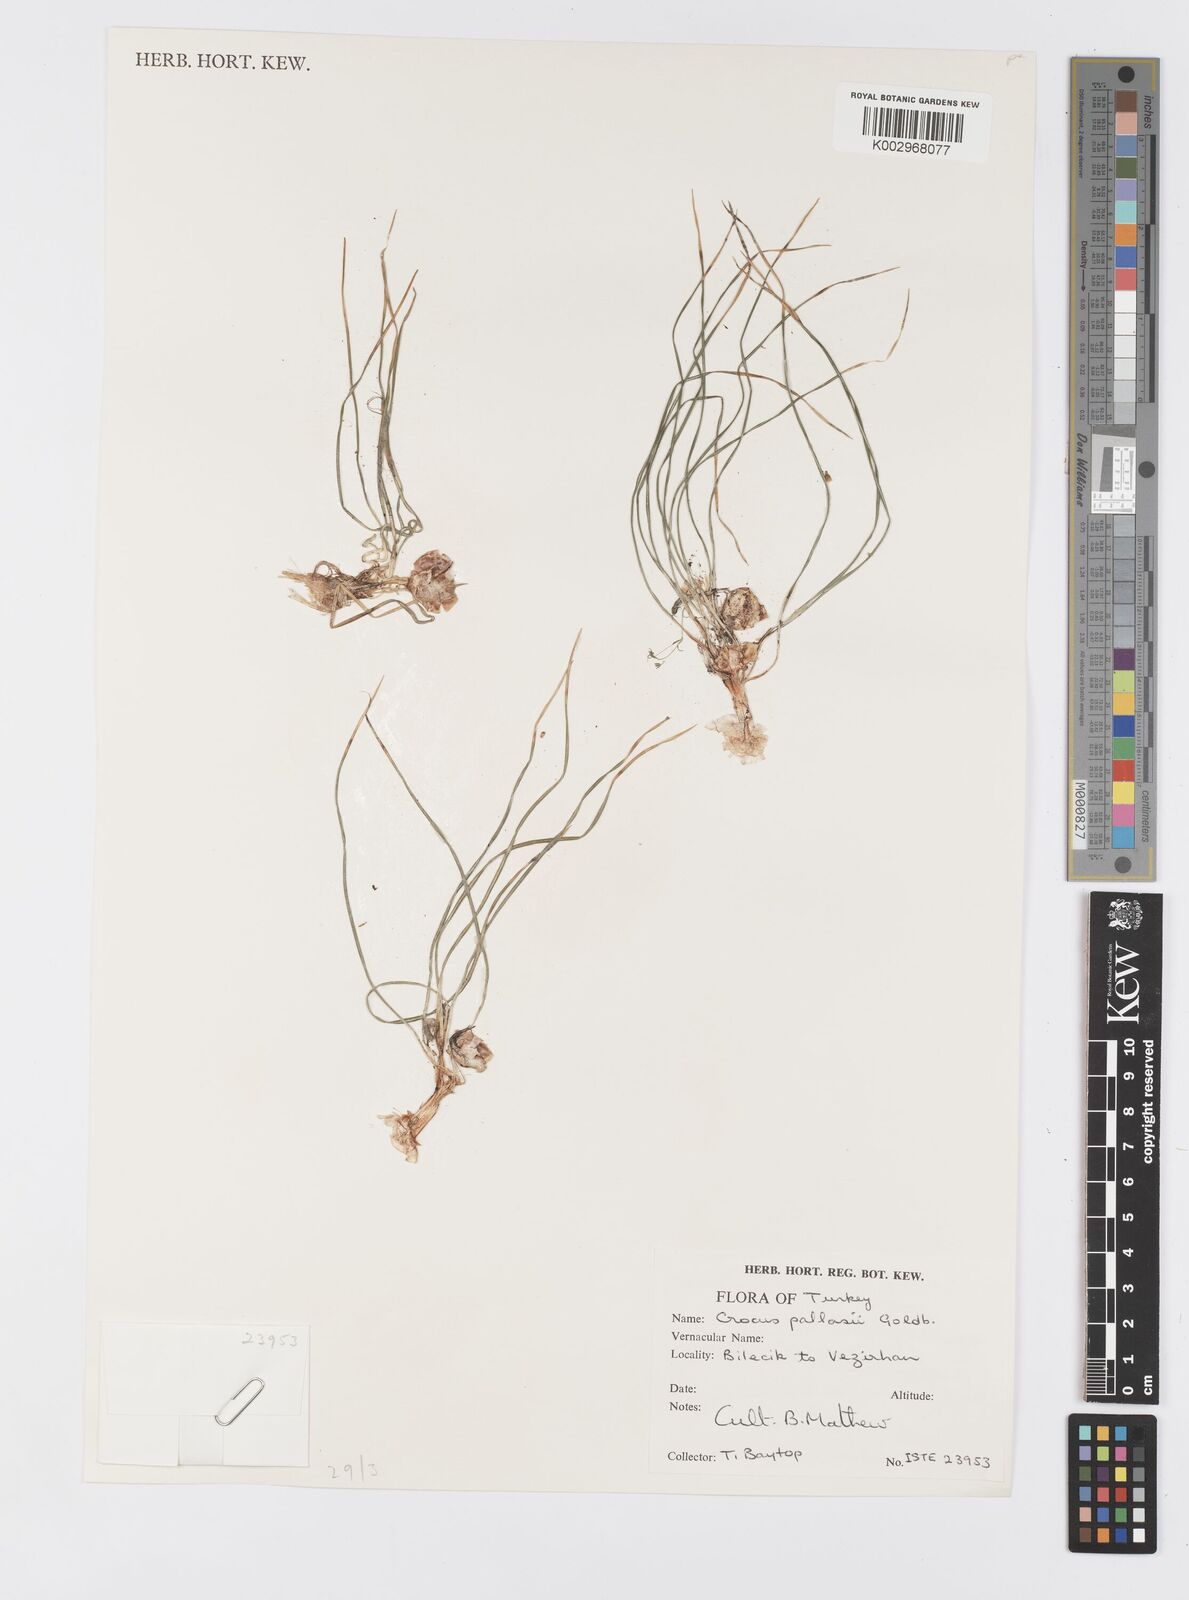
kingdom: Plantae
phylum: Tracheophyta
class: Liliopsida
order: Asparagales
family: Iridaceae
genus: Crocus
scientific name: Crocus
